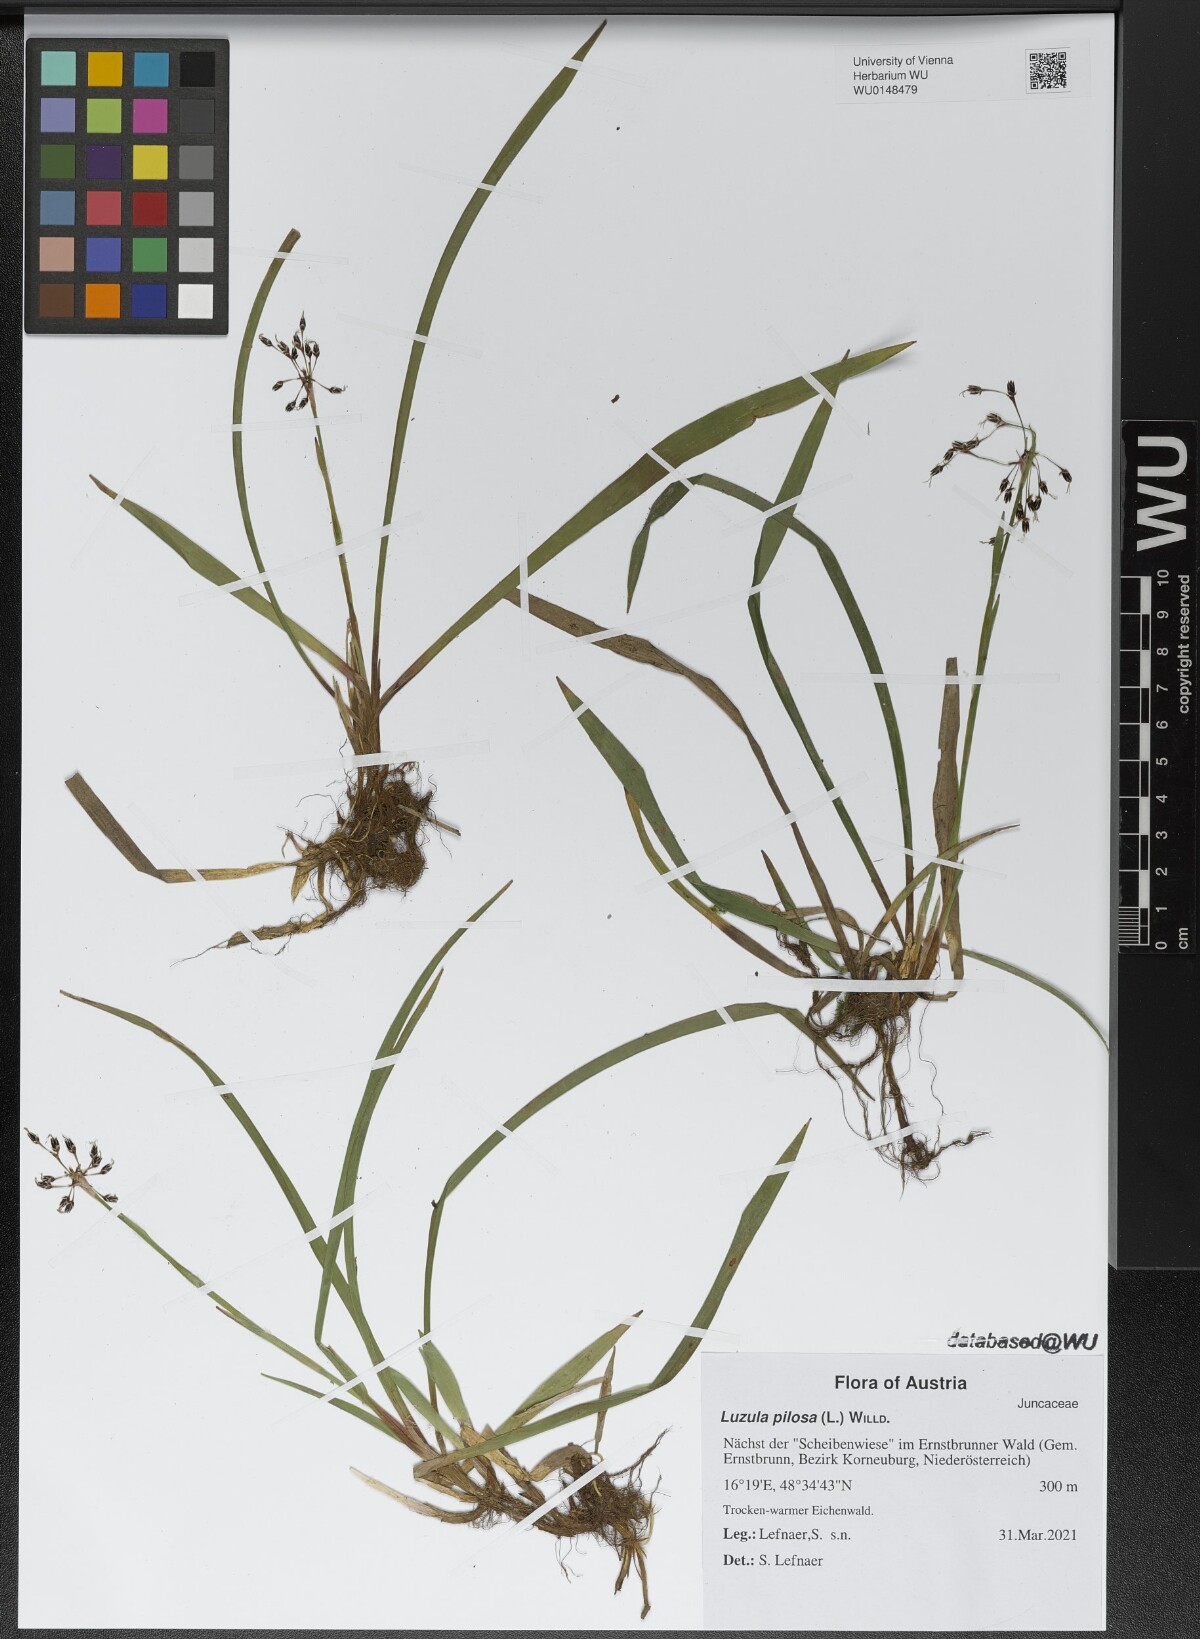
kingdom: Plantae
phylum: Tracheophyta
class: Liliopsida
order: Poales
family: Juncaceae
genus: Luzula
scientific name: Luzula pilosa
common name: Hairy wood-rush
